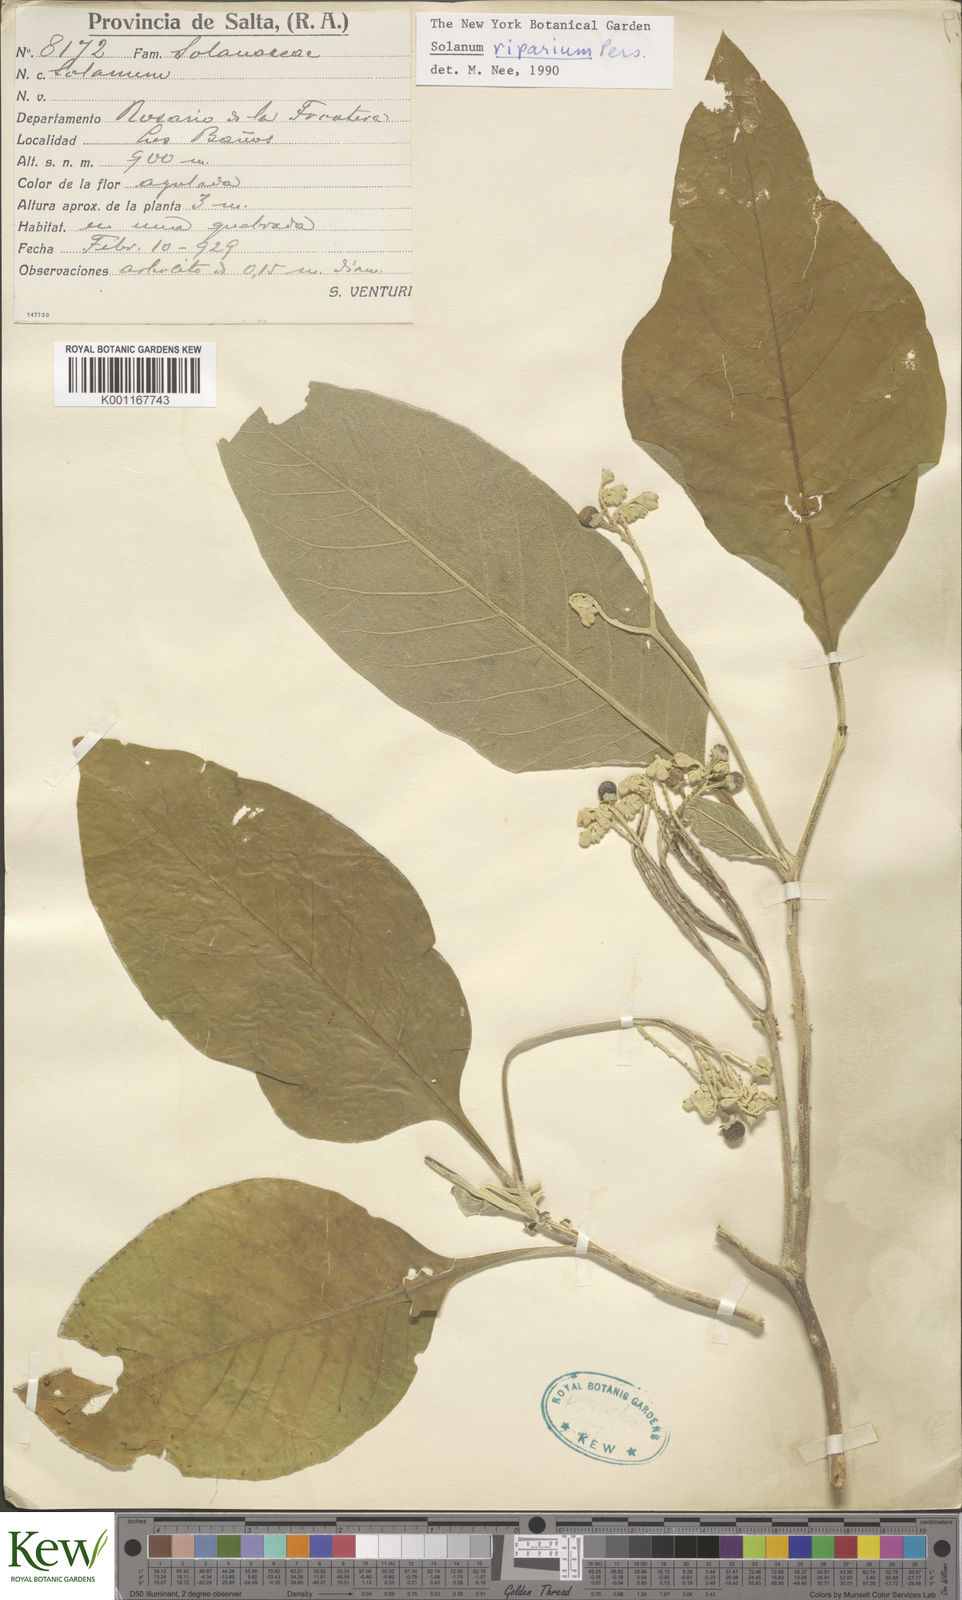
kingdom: Plantae
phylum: Tracheophyta
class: Magnoliopsida
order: Solanales
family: Solanaceae
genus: Solanum
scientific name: Solanum riparium
